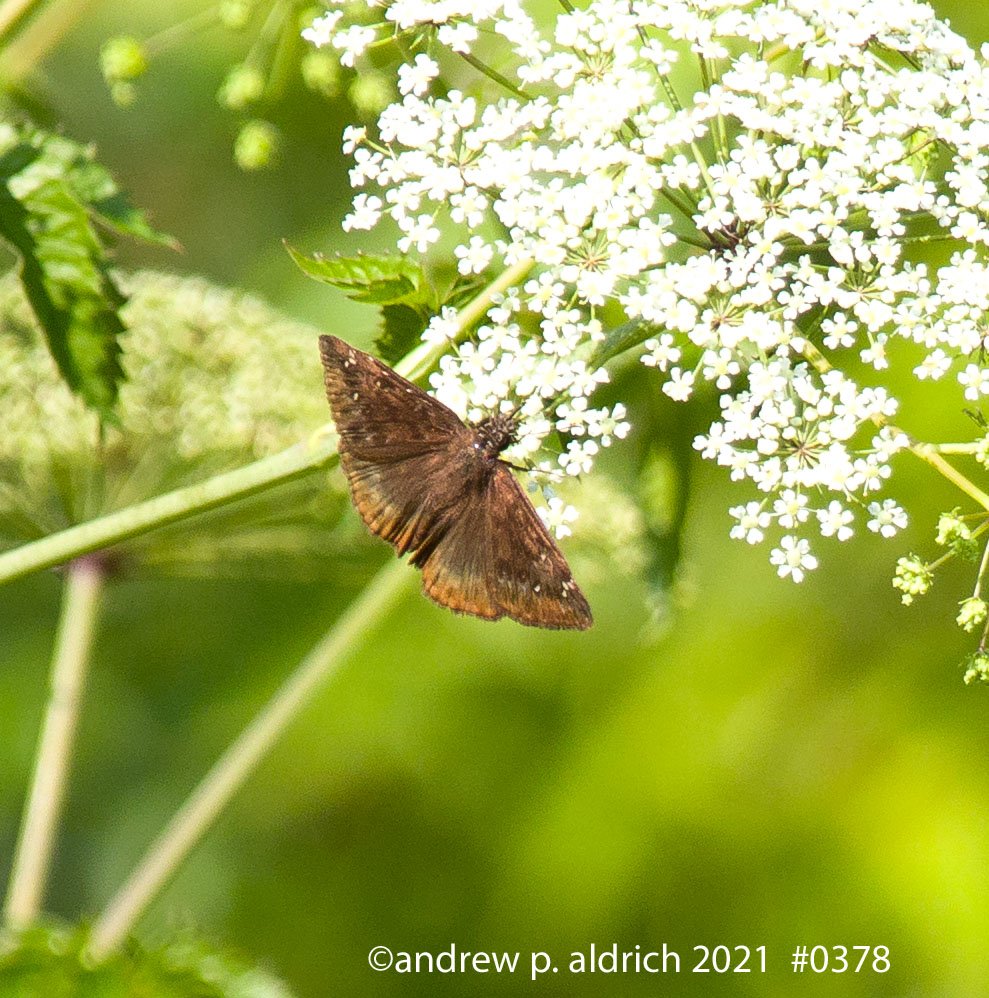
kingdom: Animalia
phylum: Arthropoda
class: Insecta
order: Lepidoptera
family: Hesperiidae
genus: Gesta
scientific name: Gesta
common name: Horace's Duskywing
